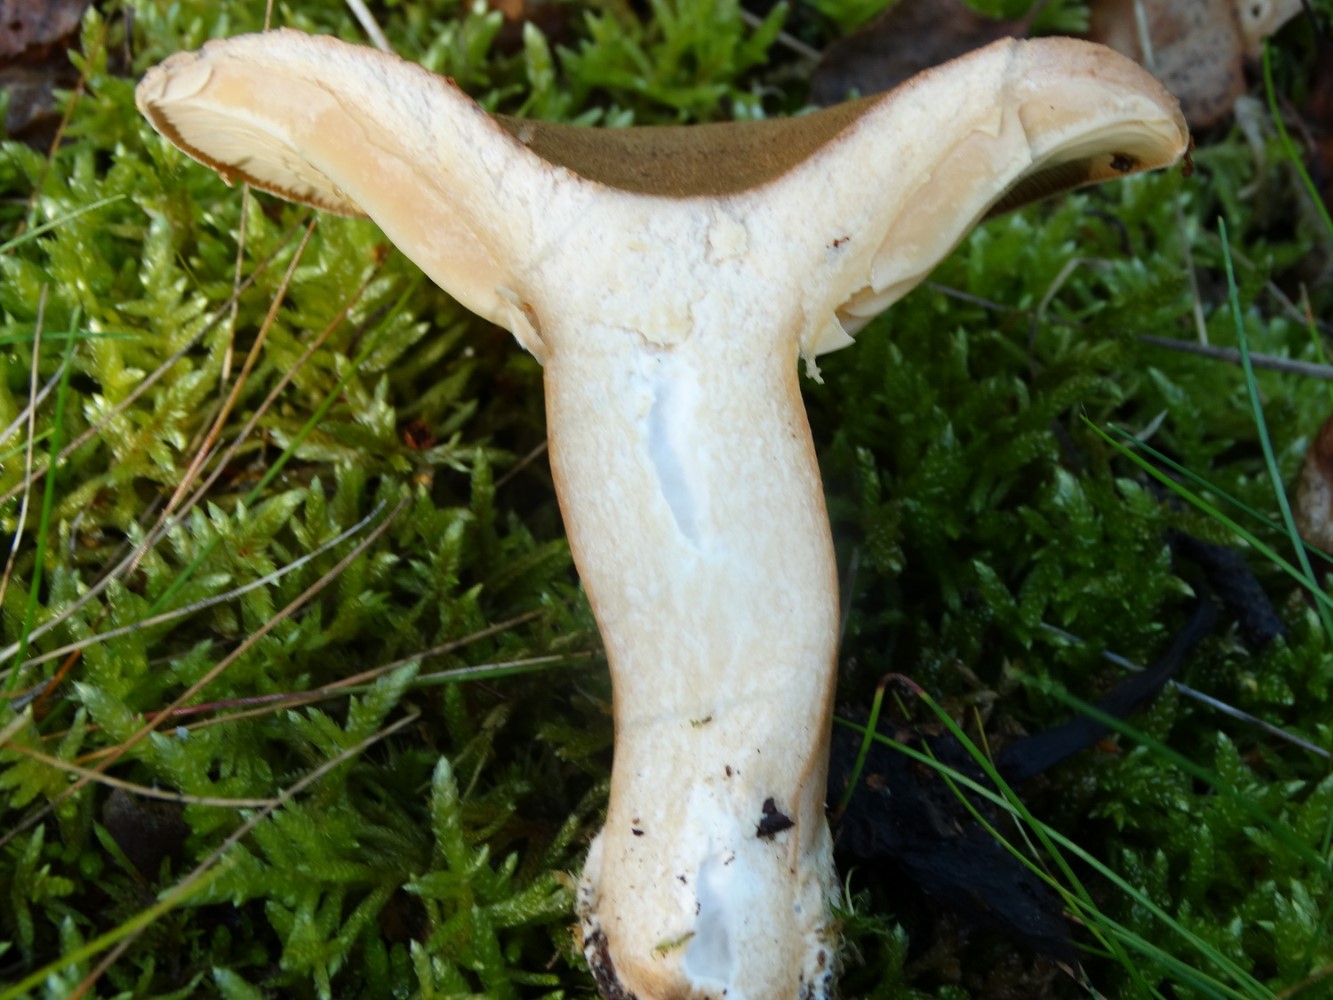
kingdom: Fungi
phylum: Basidiomycota
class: Agaricomycetes
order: Russulales
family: Russulaceae
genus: Lactarius
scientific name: Lactarius helvus
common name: mose-mælkehat
